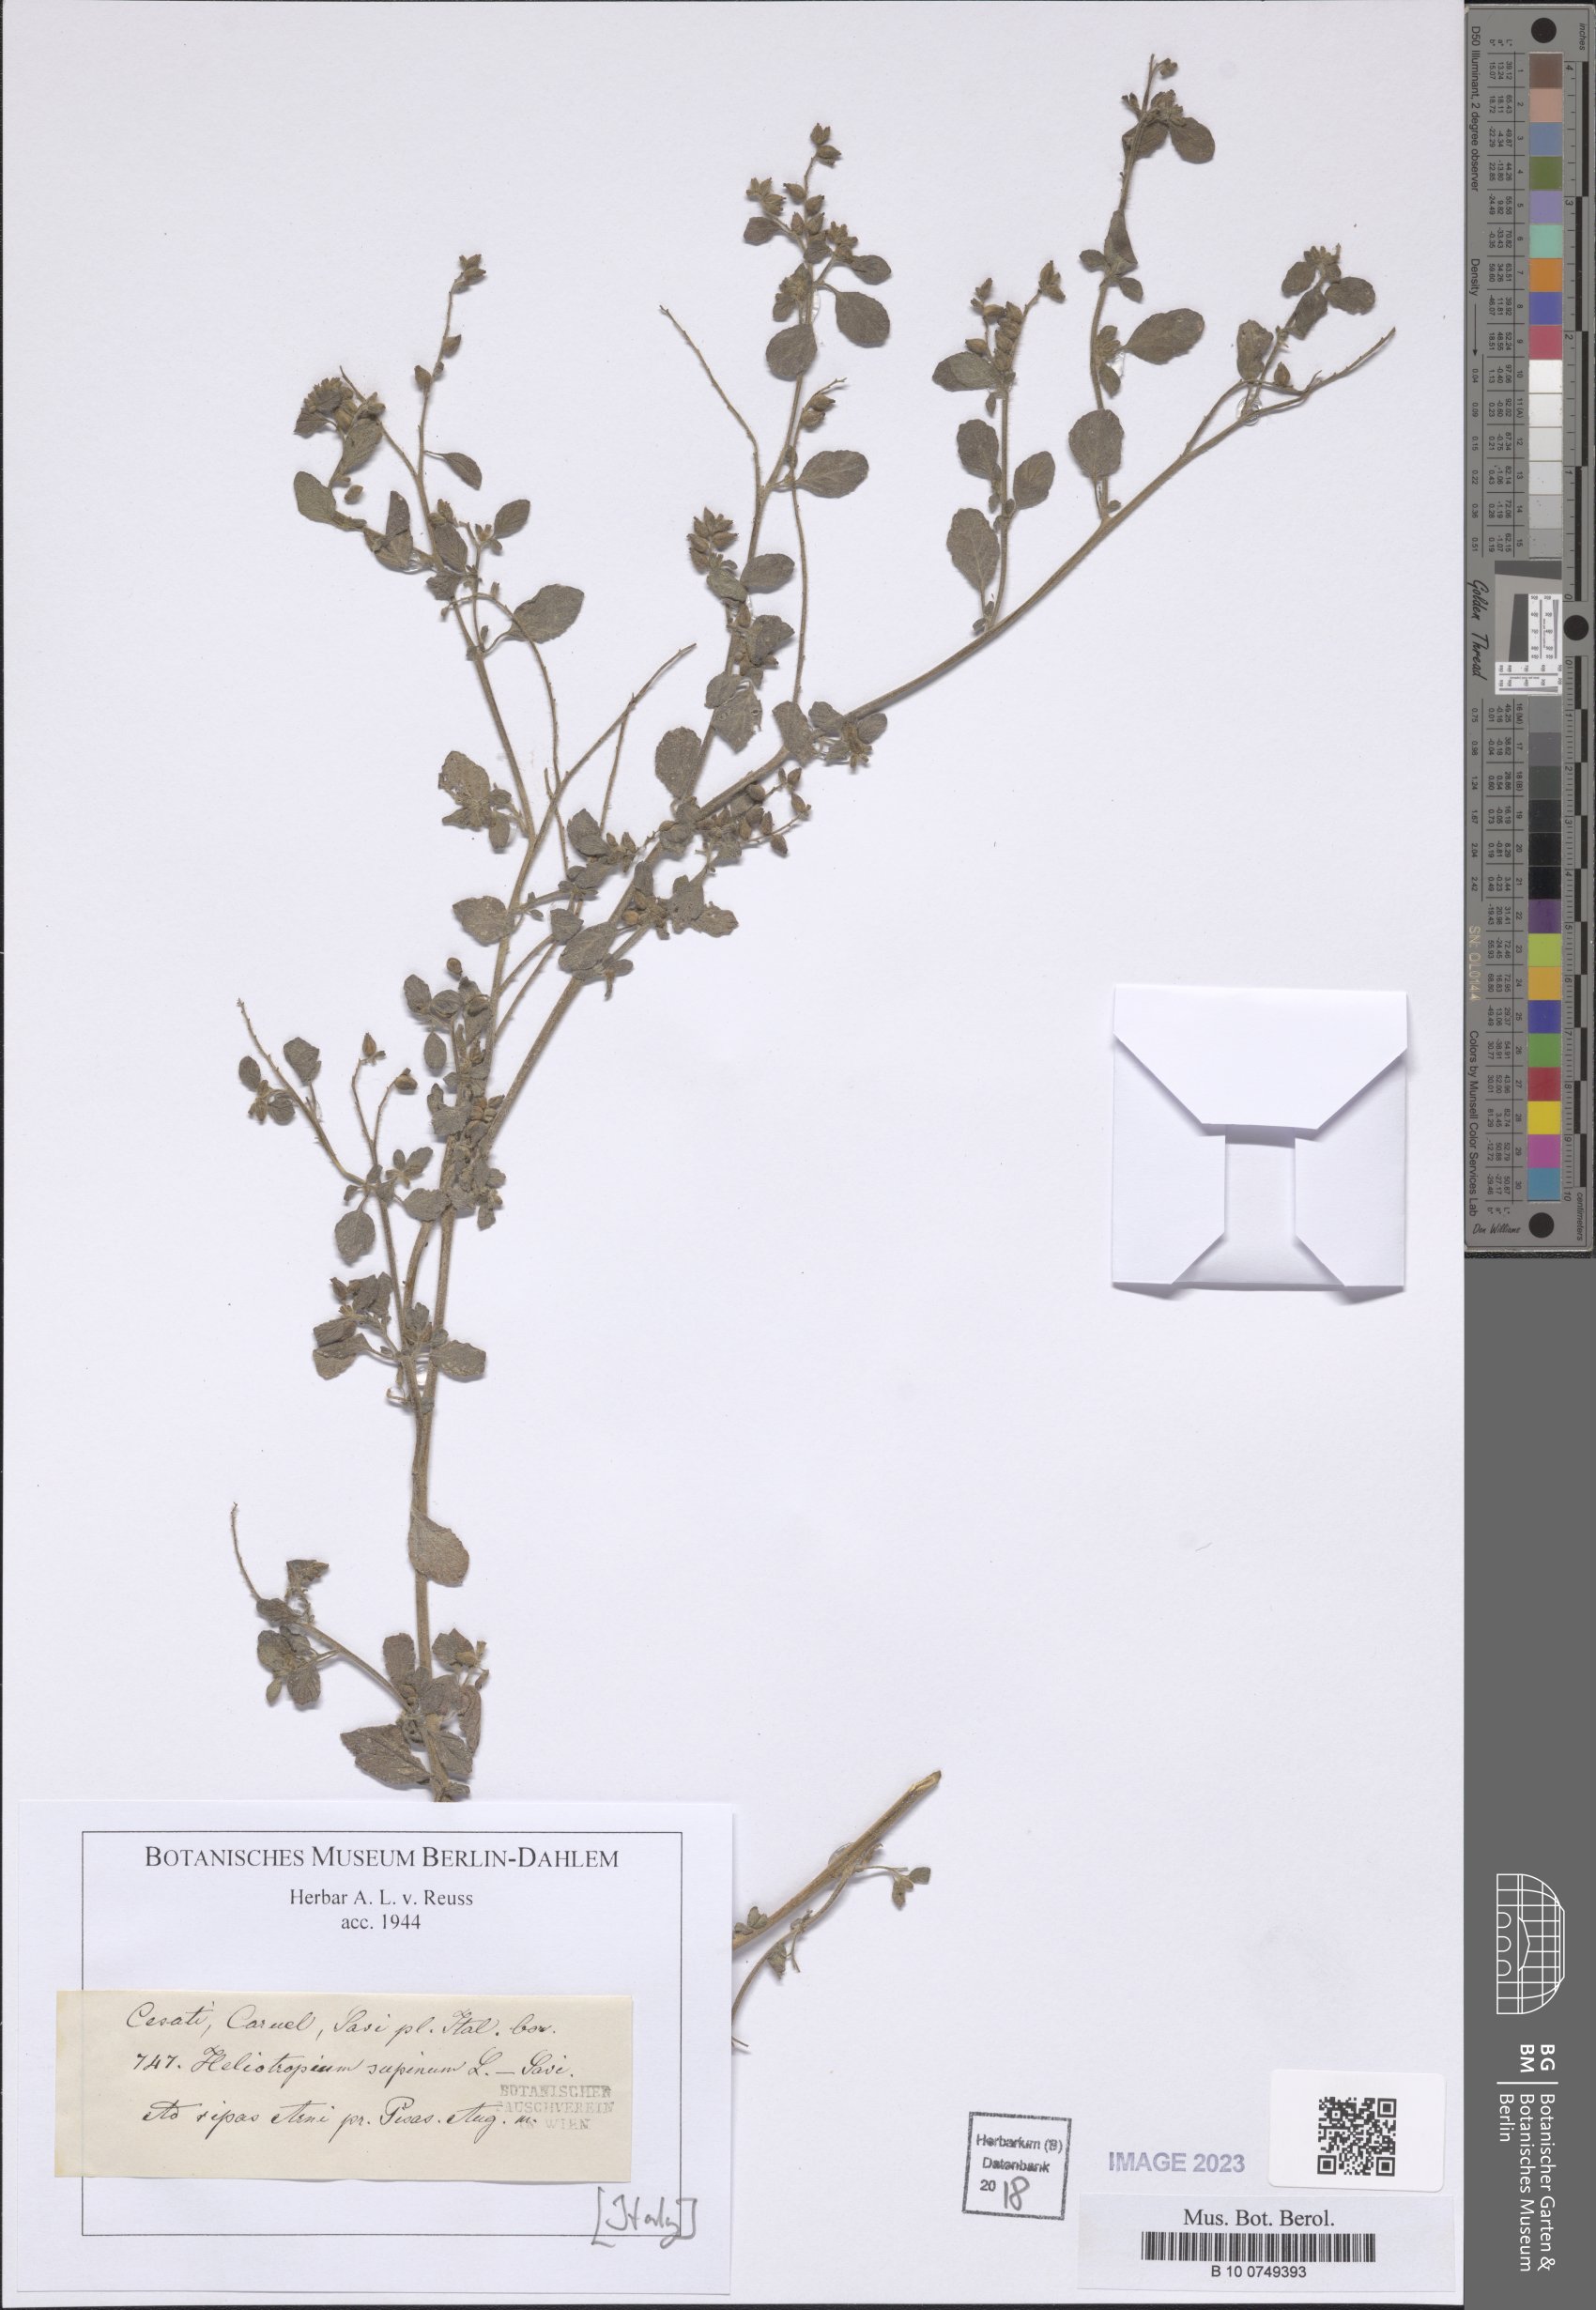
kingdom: Plantae
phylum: Tracheophyta
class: Magnoliopsida
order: Boraginales
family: Heliotropiaceae
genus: Heliotropium
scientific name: Heliotropium supinum
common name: Dwarf heliotrope
